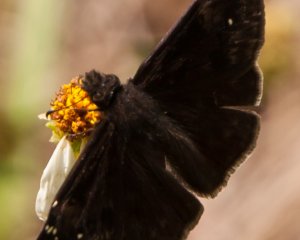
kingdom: Animalia
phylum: Arthropoda
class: Insecta
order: Lepidoptera
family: Hesperiidae
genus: Erynnis
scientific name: Erynnis zarucco
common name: Zarucco Duskywing
